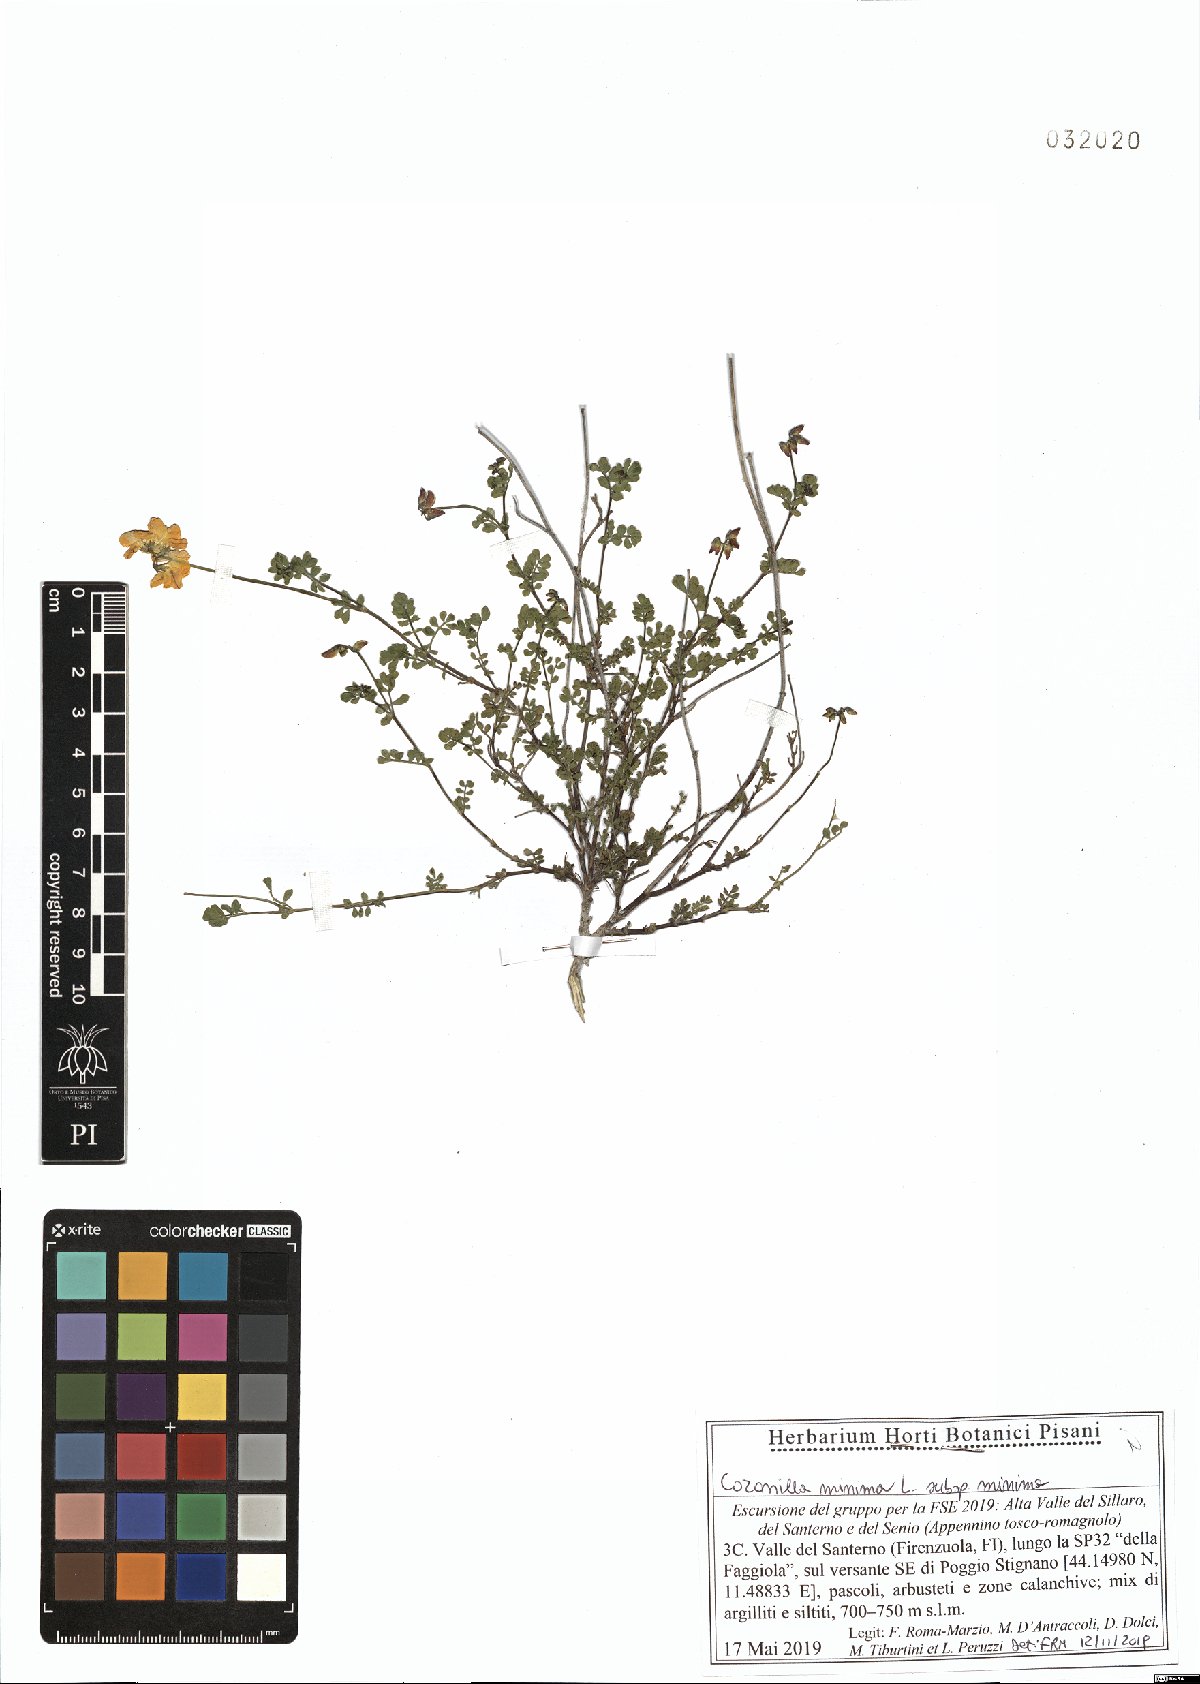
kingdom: Plantae
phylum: Tracheophyta
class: Magnoliopsida
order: Fabales
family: Fabaceae
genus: Coronilla
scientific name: Coronilla minima
